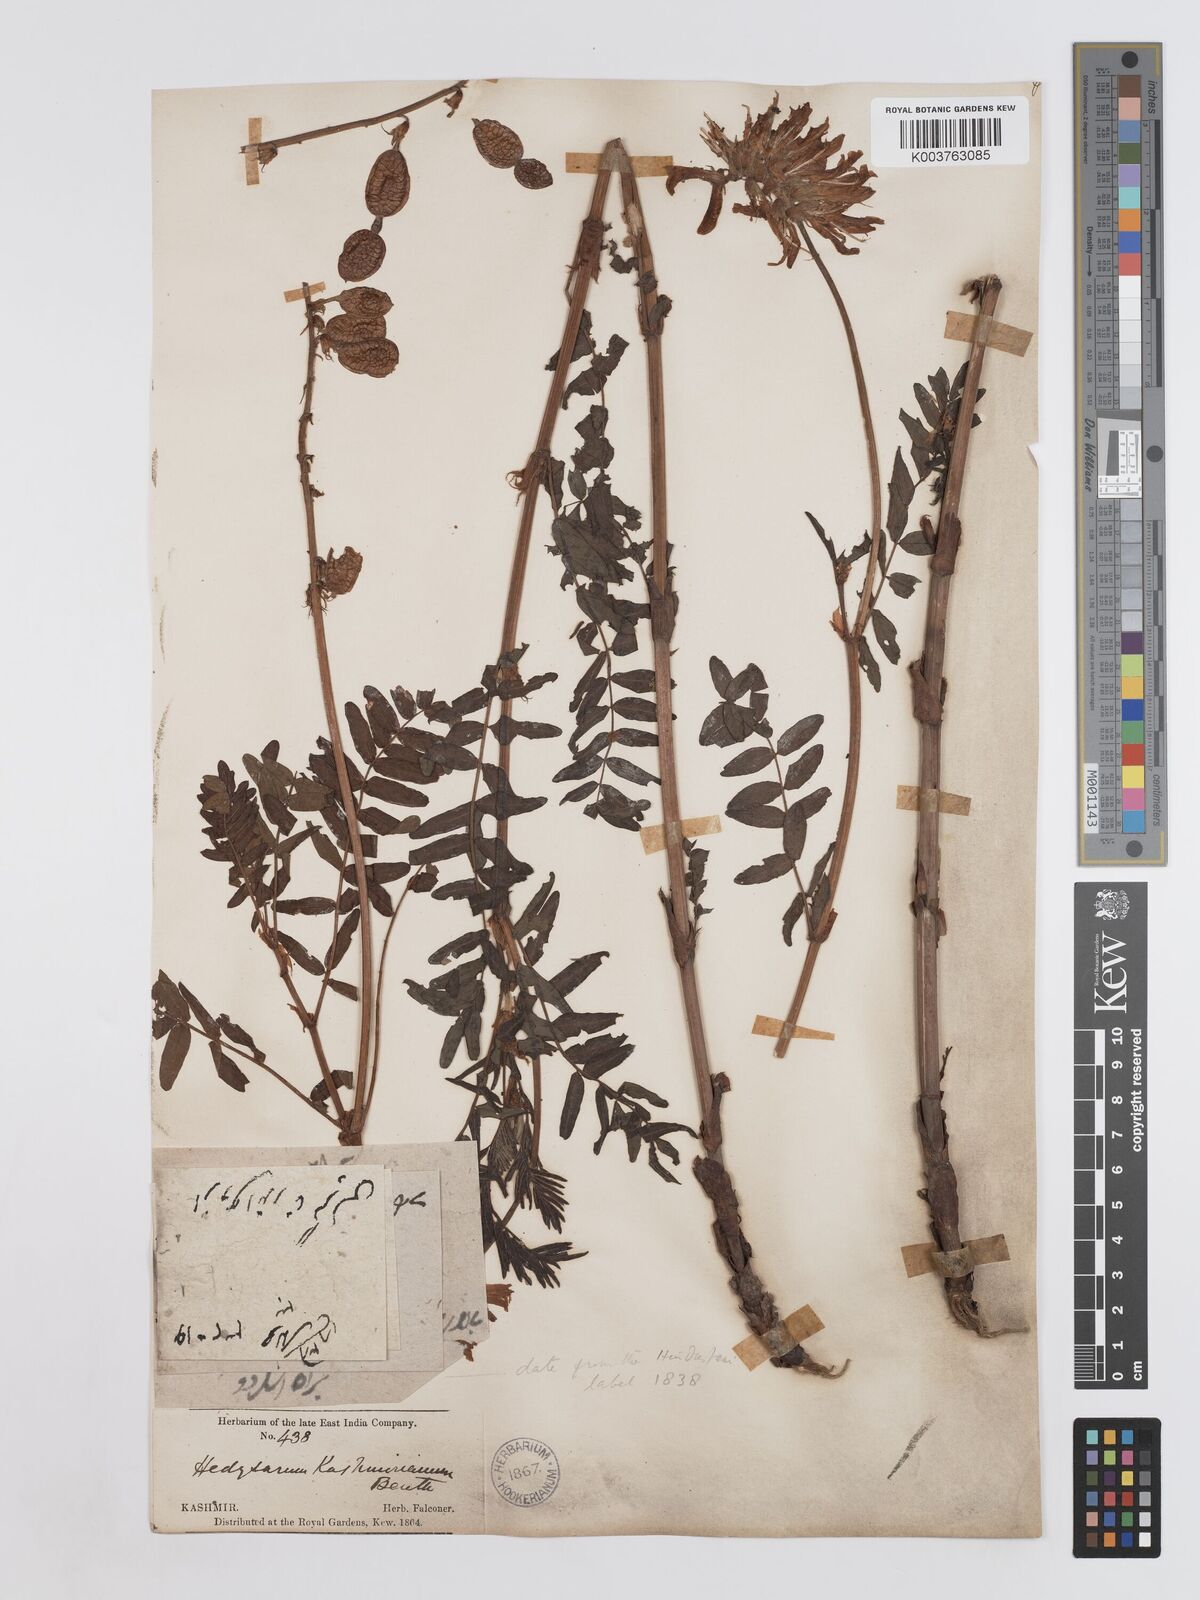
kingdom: Plantae
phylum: Tracheophyta
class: Magnoliopsida
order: Fabales
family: Fabaceae
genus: Hedysarum
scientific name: Hedysarum cachemirianum
